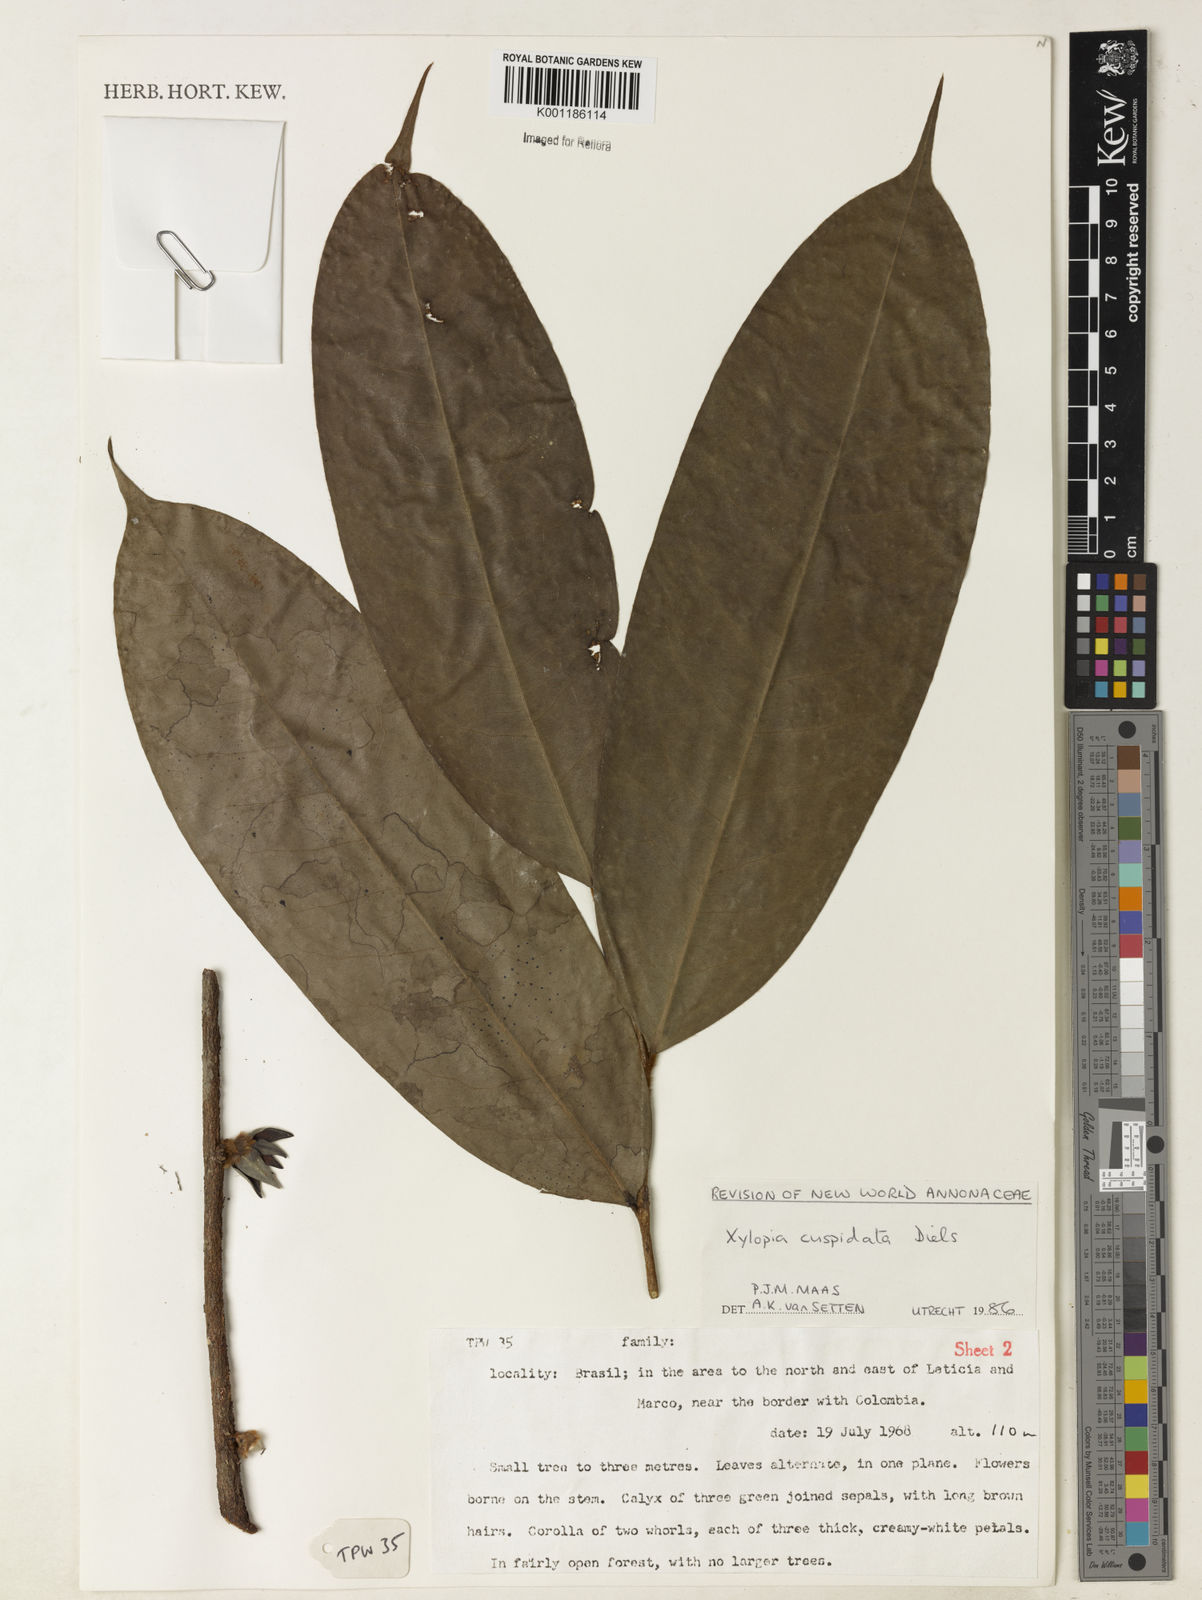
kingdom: Plantae
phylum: Tracheophyta
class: Magnoliopsida
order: Magnoliales
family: Annonaceae
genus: Xylopia
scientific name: Xylopia cuspidata
